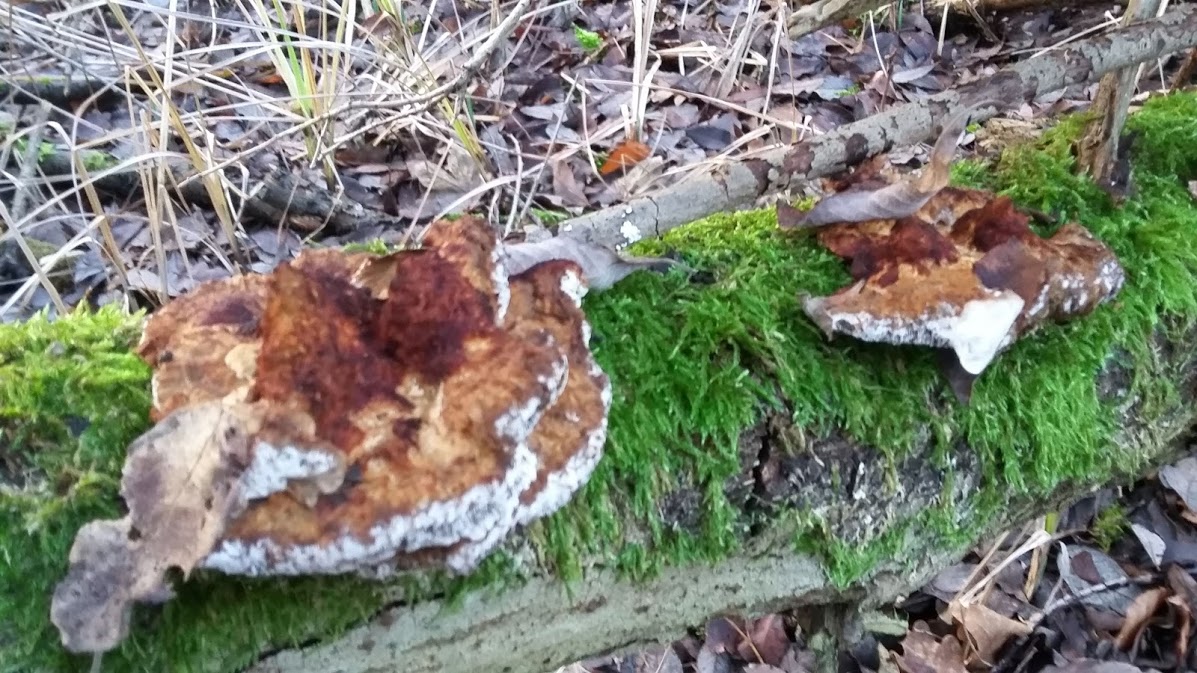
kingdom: Fungi
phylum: Basidiomycota
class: Agaricomycetes
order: Polyporales
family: Polyporaceae
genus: Daedaleopsis
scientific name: Daedaleopsis confragosa
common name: rødmende læderporesvamp
